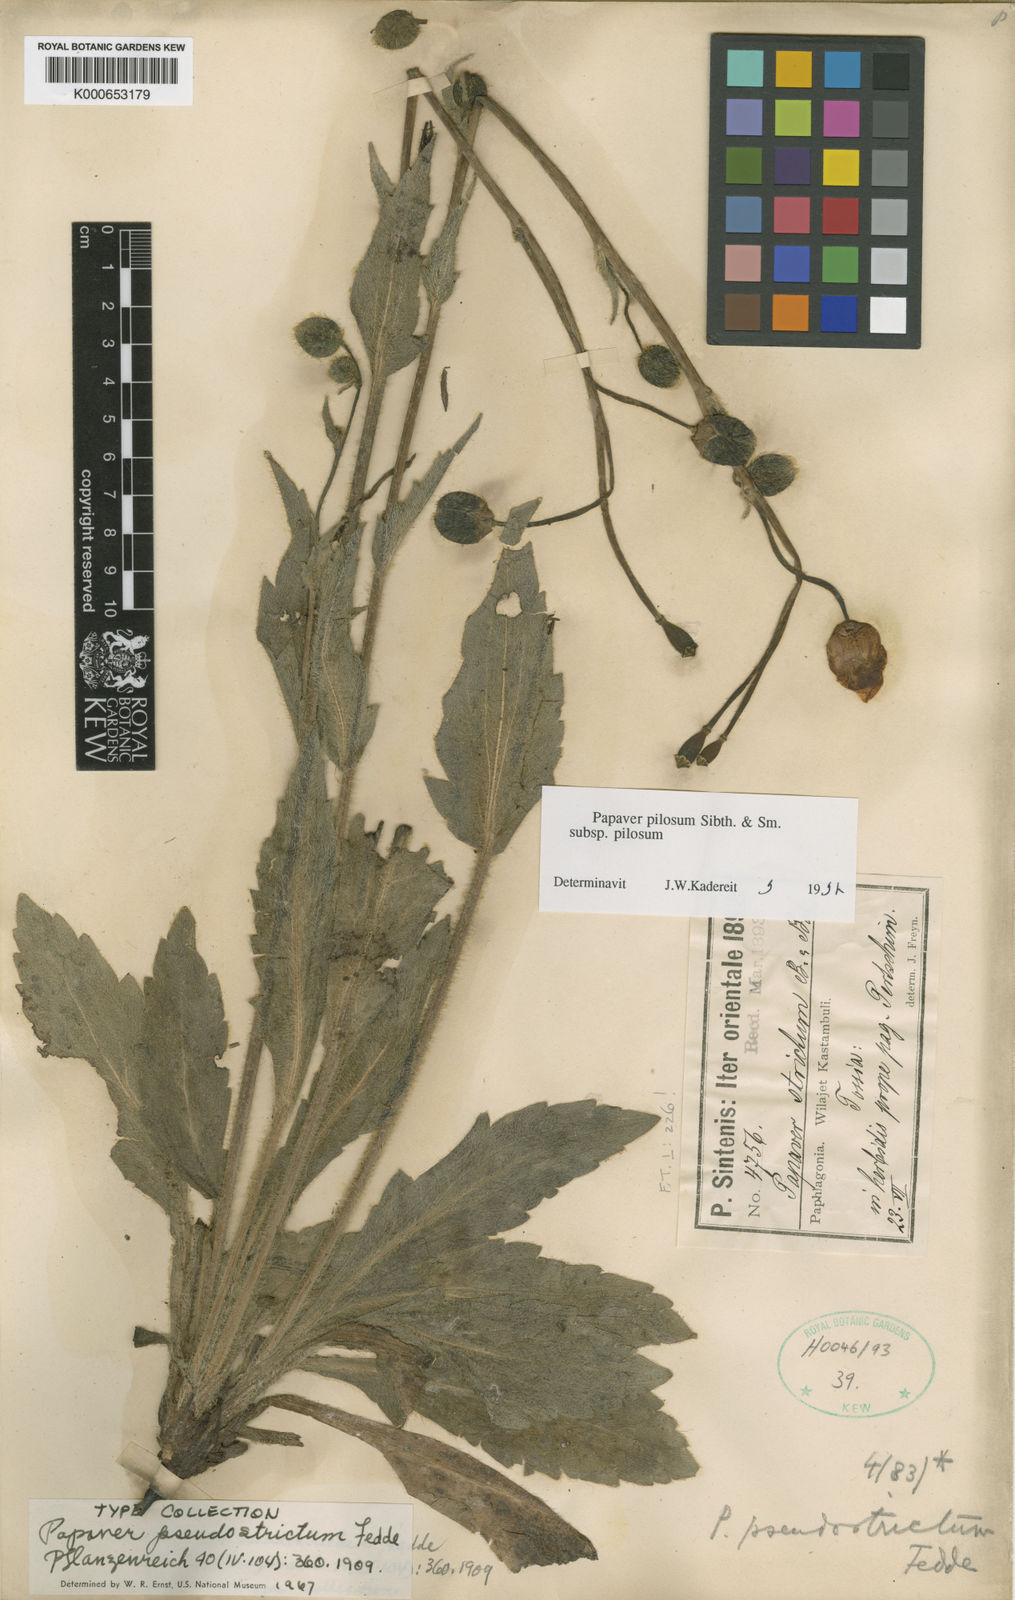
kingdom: Plantae
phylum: Tracheophyta
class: Magnoliopsida
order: Ranunculales
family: Papaveraceae
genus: Papaver
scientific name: Papaver pilosum
